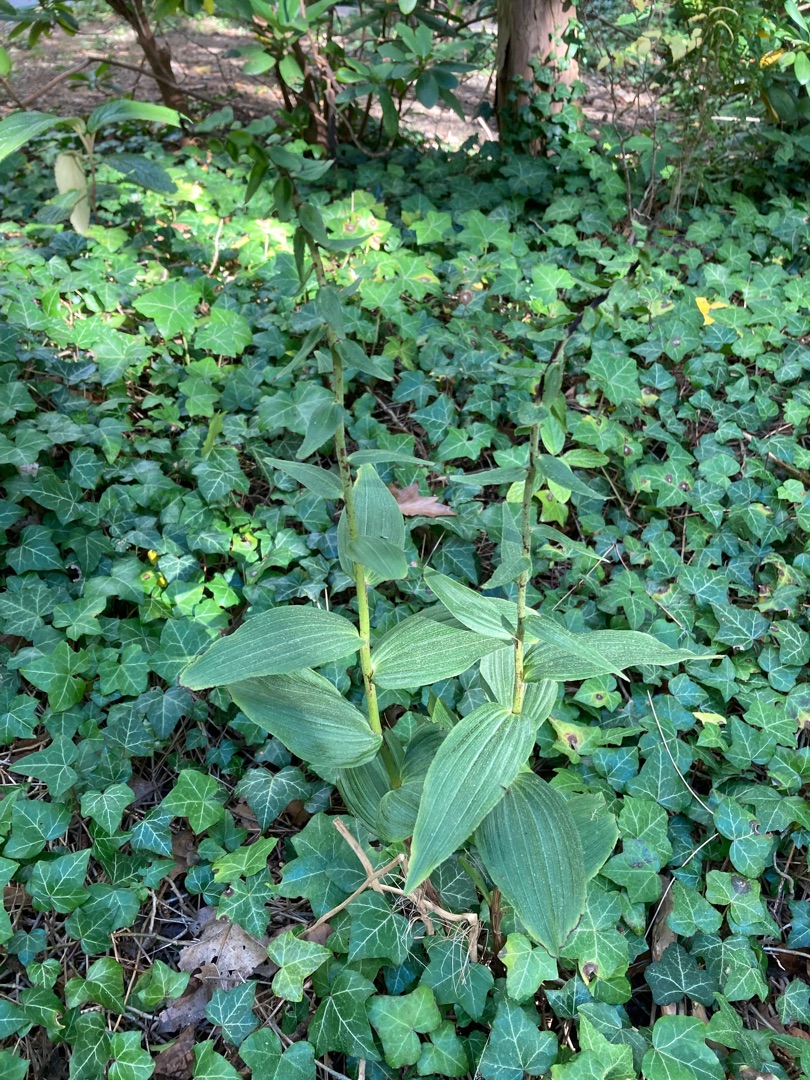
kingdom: Plantae
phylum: Tracheophyta
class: Liliopsida
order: Asparagales
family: Orchidaceae
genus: Epipactis
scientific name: Epipactis helleborine
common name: Skov-hullæbe
